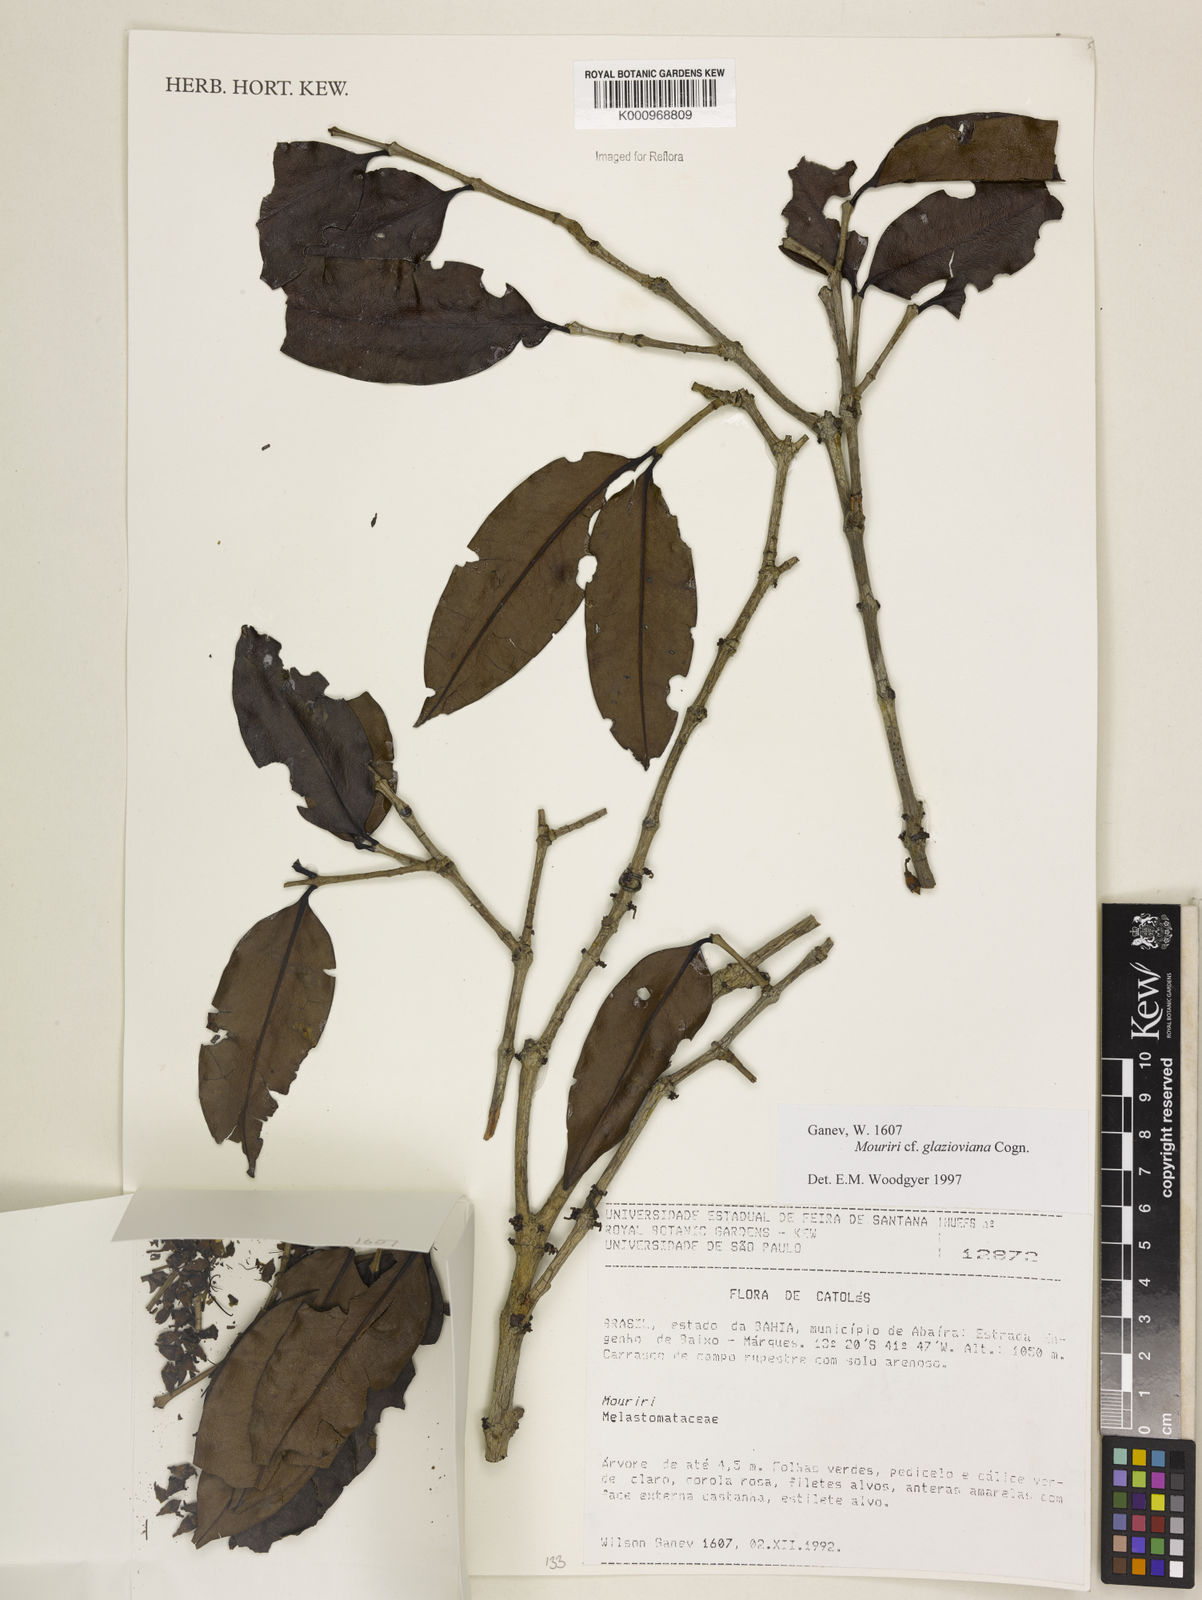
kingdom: Plantae
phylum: Tracheophyta
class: Magnoliopsida
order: Myrtales
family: Melastomataceae
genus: Mouriri
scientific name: Mouriri glazioviana
